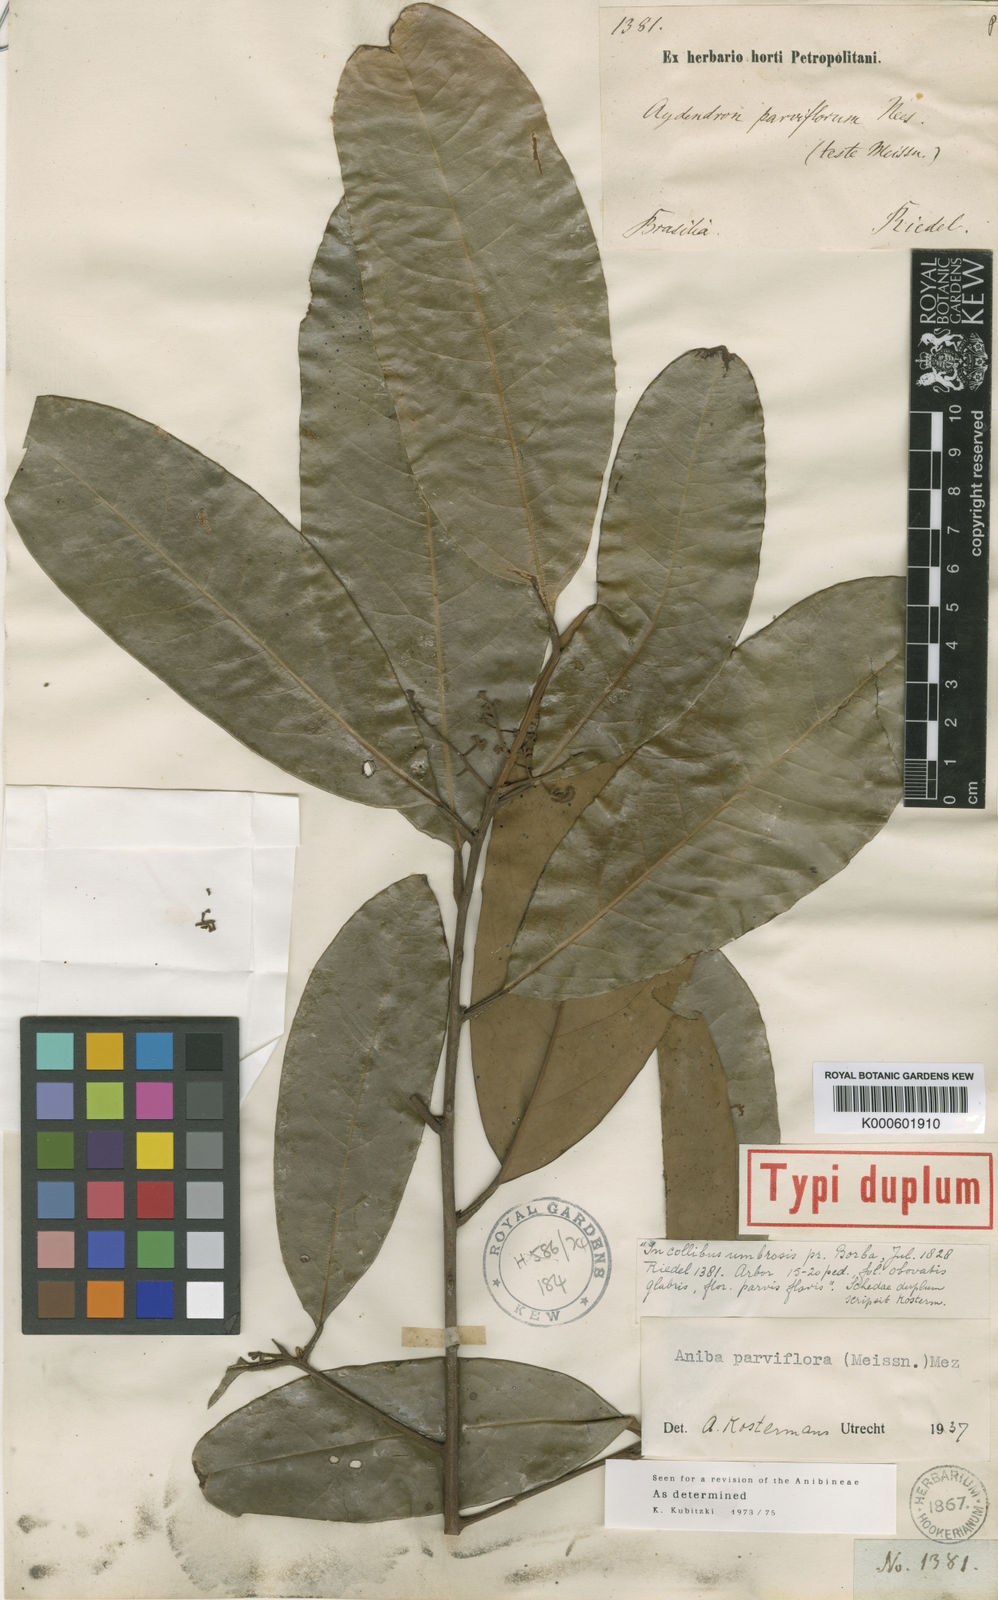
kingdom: Plantae
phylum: Tracheophyta
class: Magnoliopsida
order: Laurales
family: Lauraceae
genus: Aniba
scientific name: Aniba parviflora
